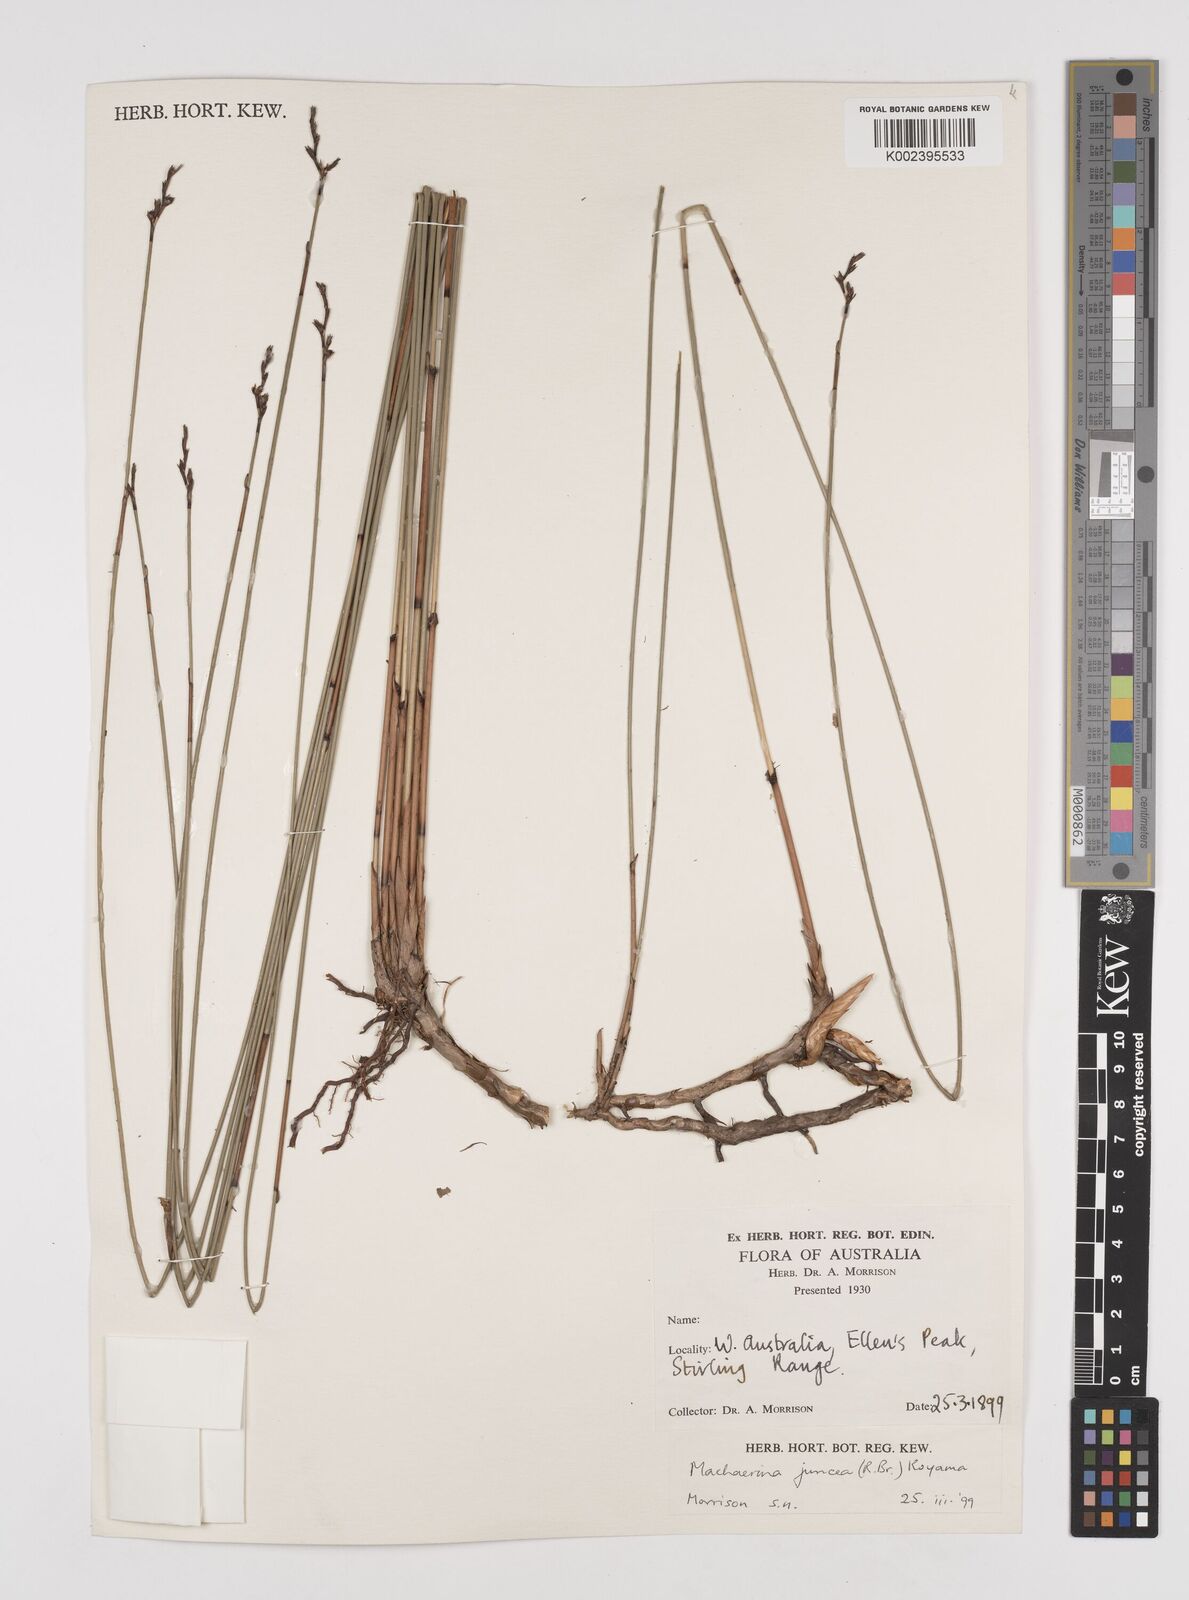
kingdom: Plantae
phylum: Tracheophyta
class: Liliopsida
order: Poales
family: Cyperaceae
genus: Machaerina
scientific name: Machaerina juncea
